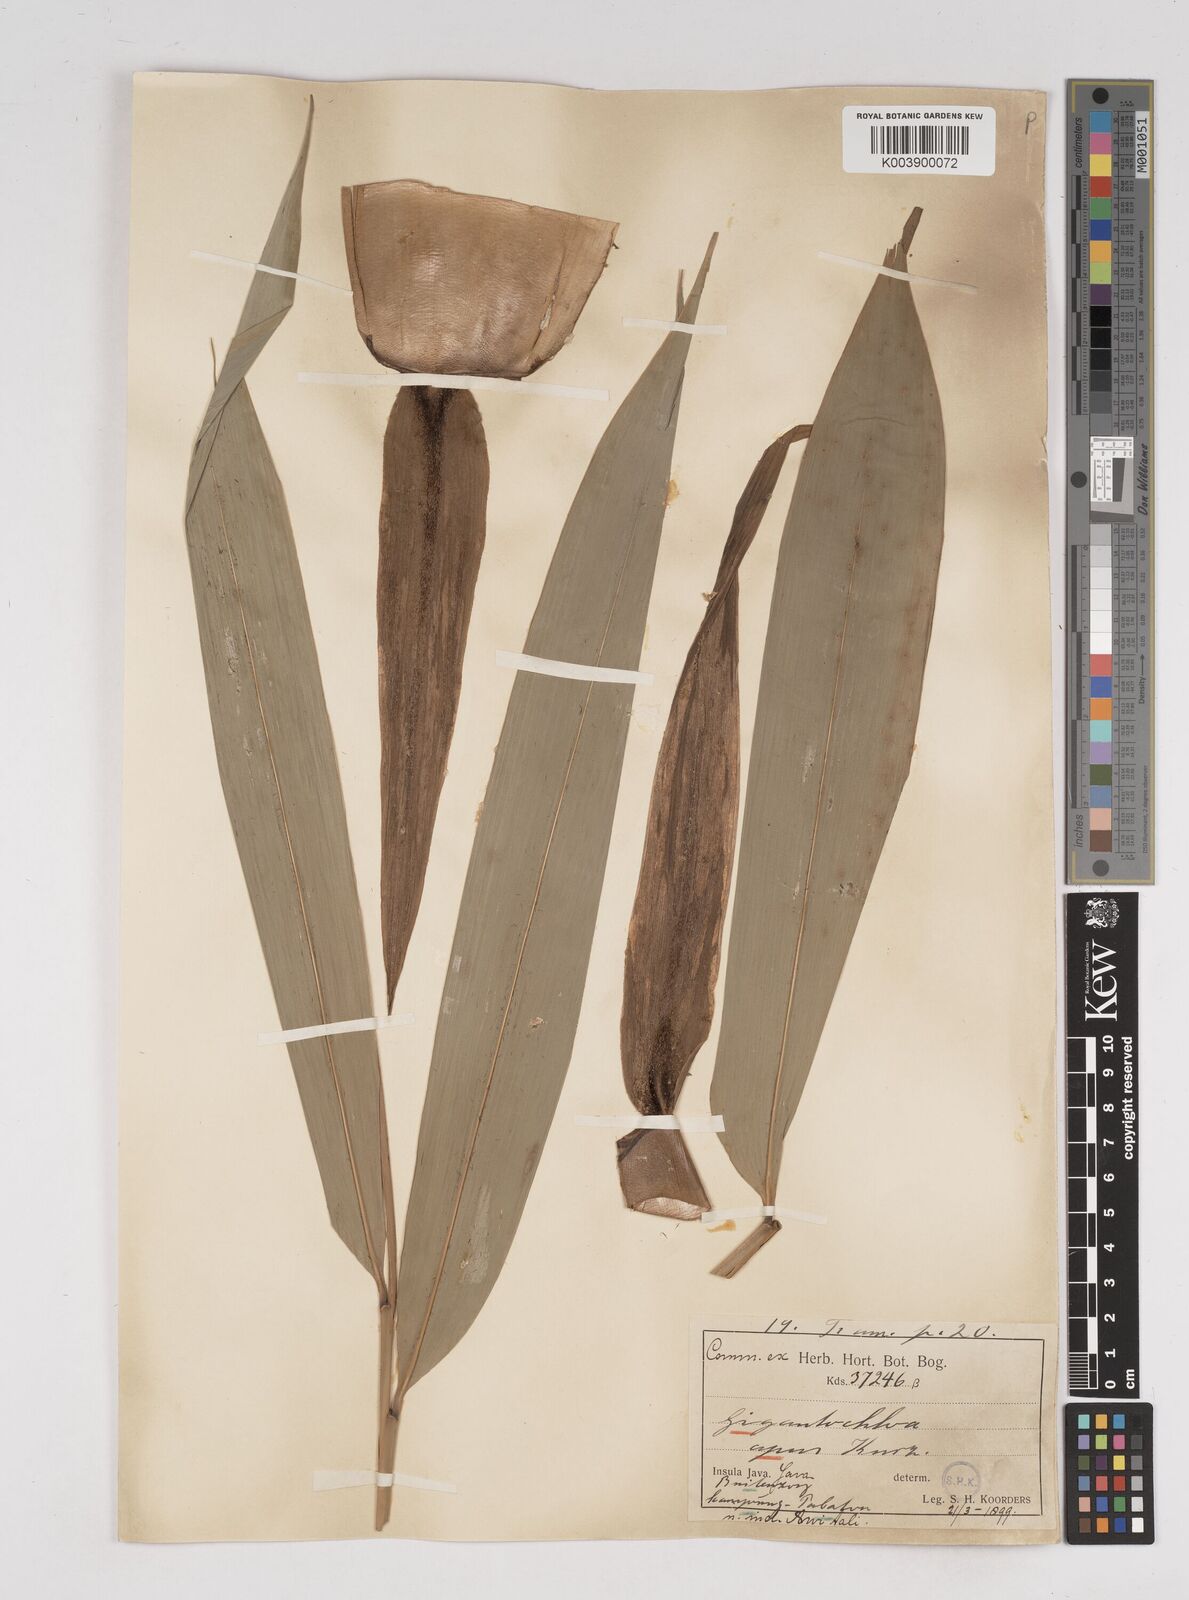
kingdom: Plantae
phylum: Tracheophyta
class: Liliopsida
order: Poales
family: Poaceae
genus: Gigantochloa
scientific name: Gigantochloa apus
